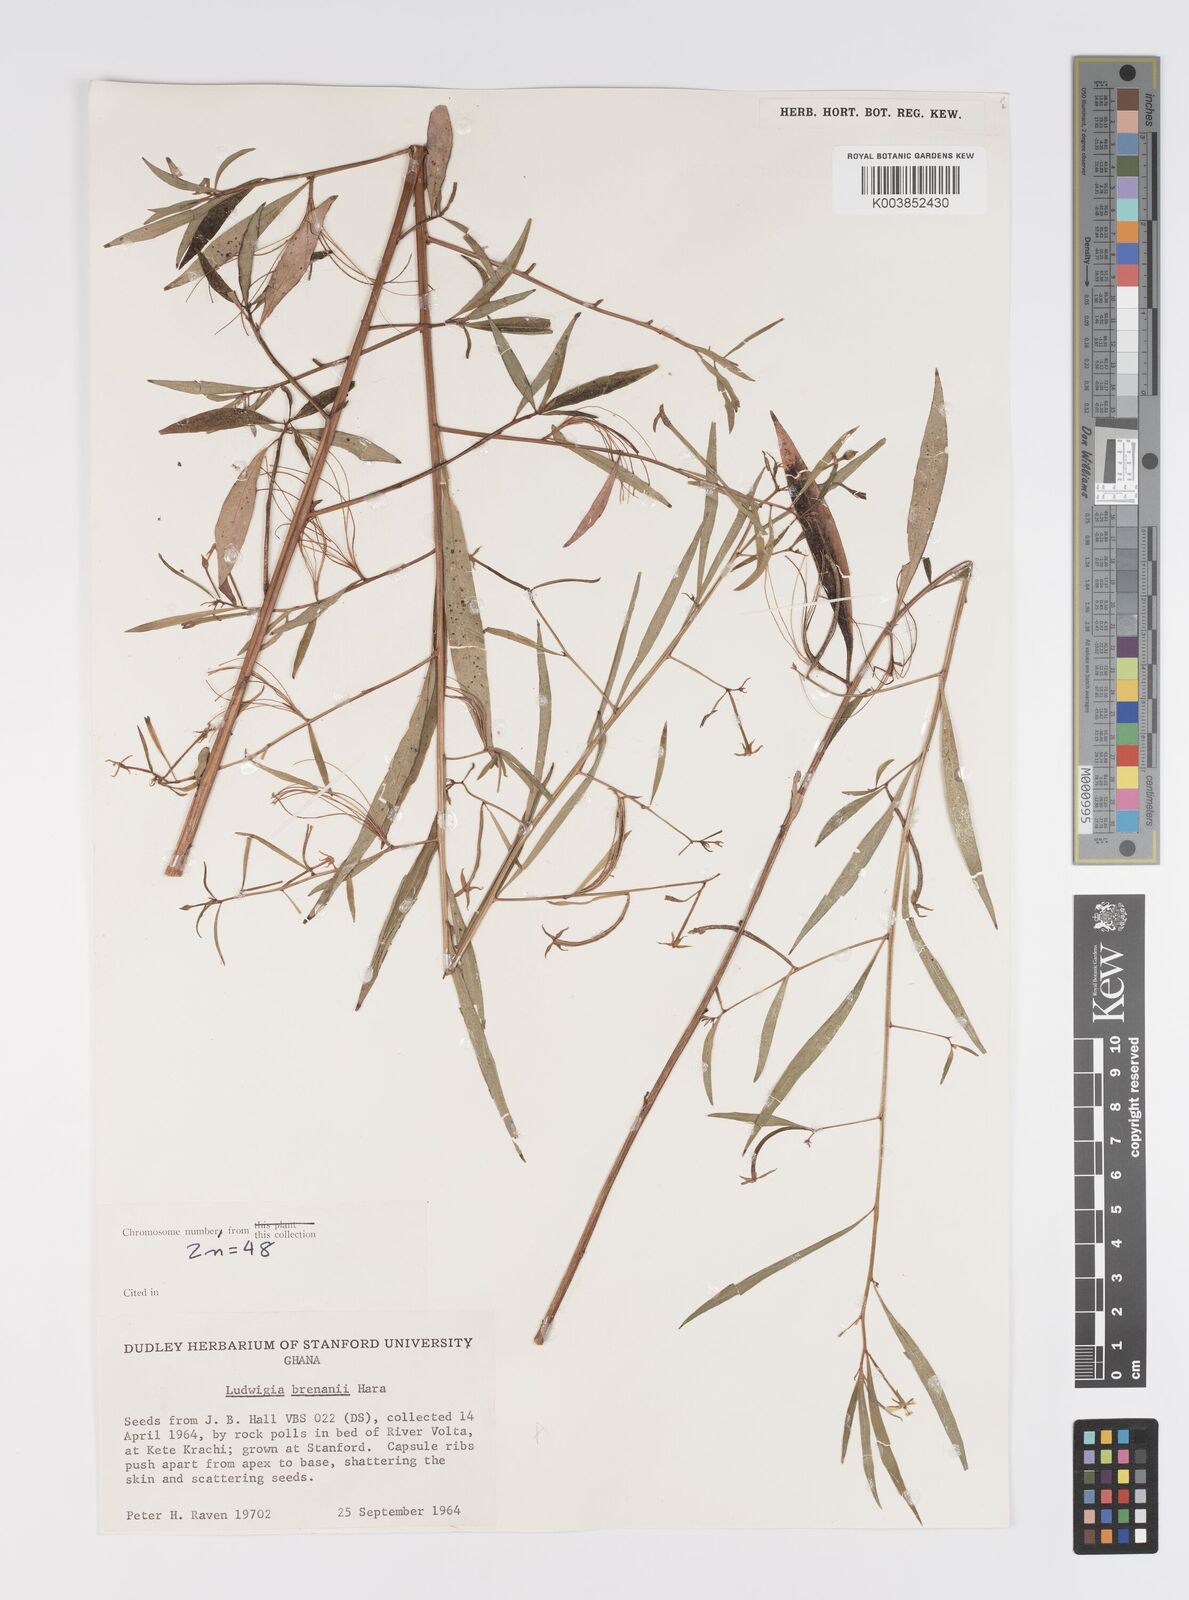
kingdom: Plantae
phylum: Tracheophyta
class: Magnoliopsida
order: Myrtales
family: Onagraceae
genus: Ludwigia
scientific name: Ludwigia brenanii
